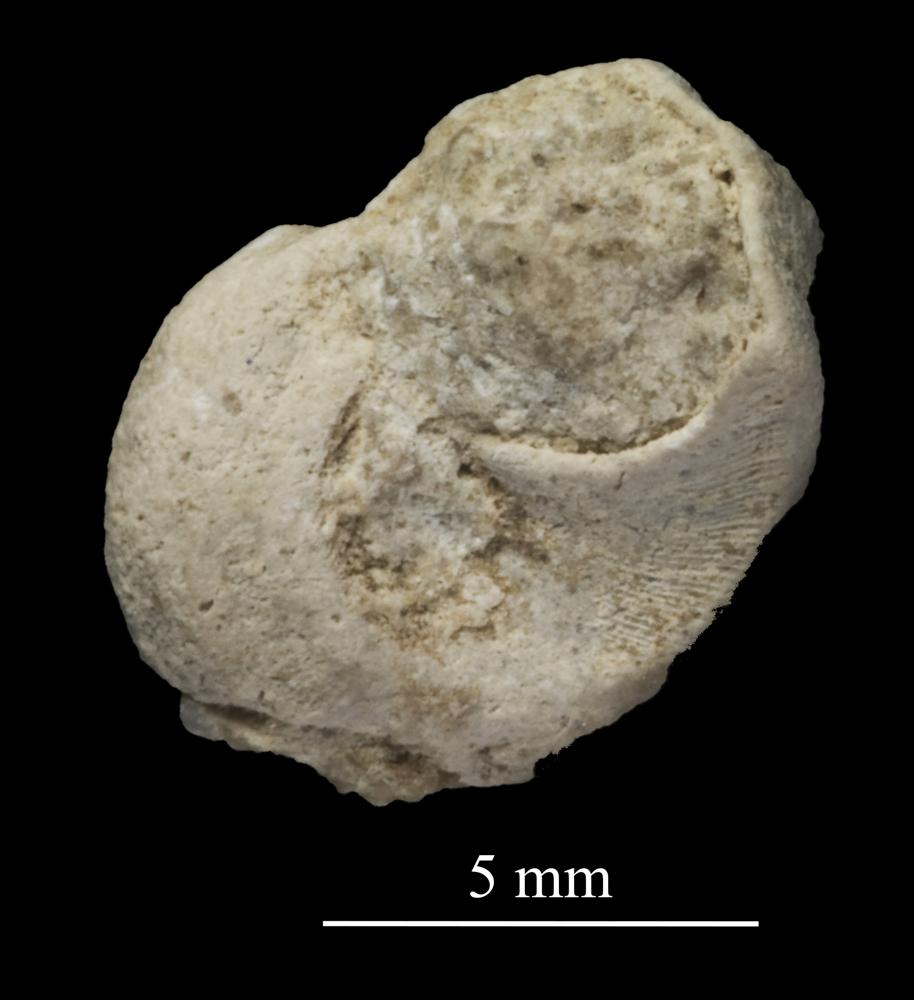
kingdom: Animalia
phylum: Mollusca
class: Gastropoda
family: Trochonematidae
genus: Trochonema
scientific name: Trochonema panderi
